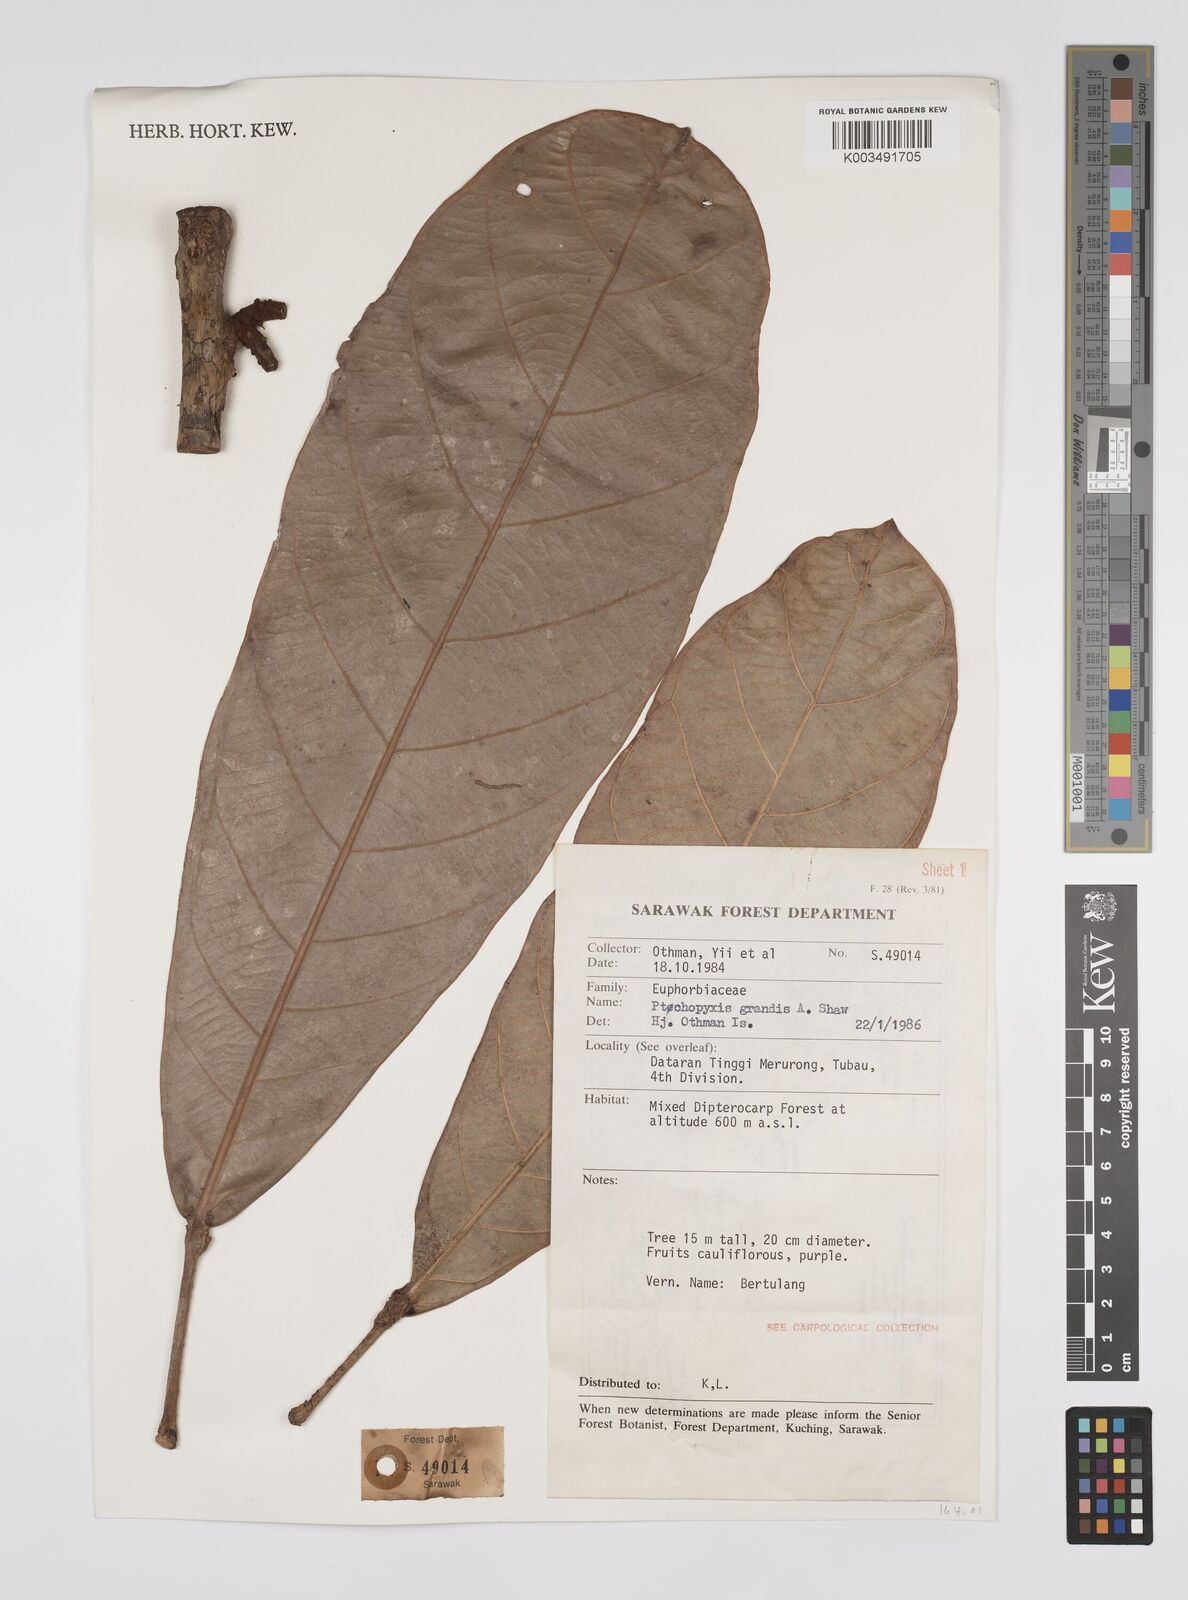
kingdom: Plantae
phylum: Tracheophyta
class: Magnoliopsida
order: Malpighiales
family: Euphorbiaceae
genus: Ptychopyxis
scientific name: Ptychopyxis grandis
